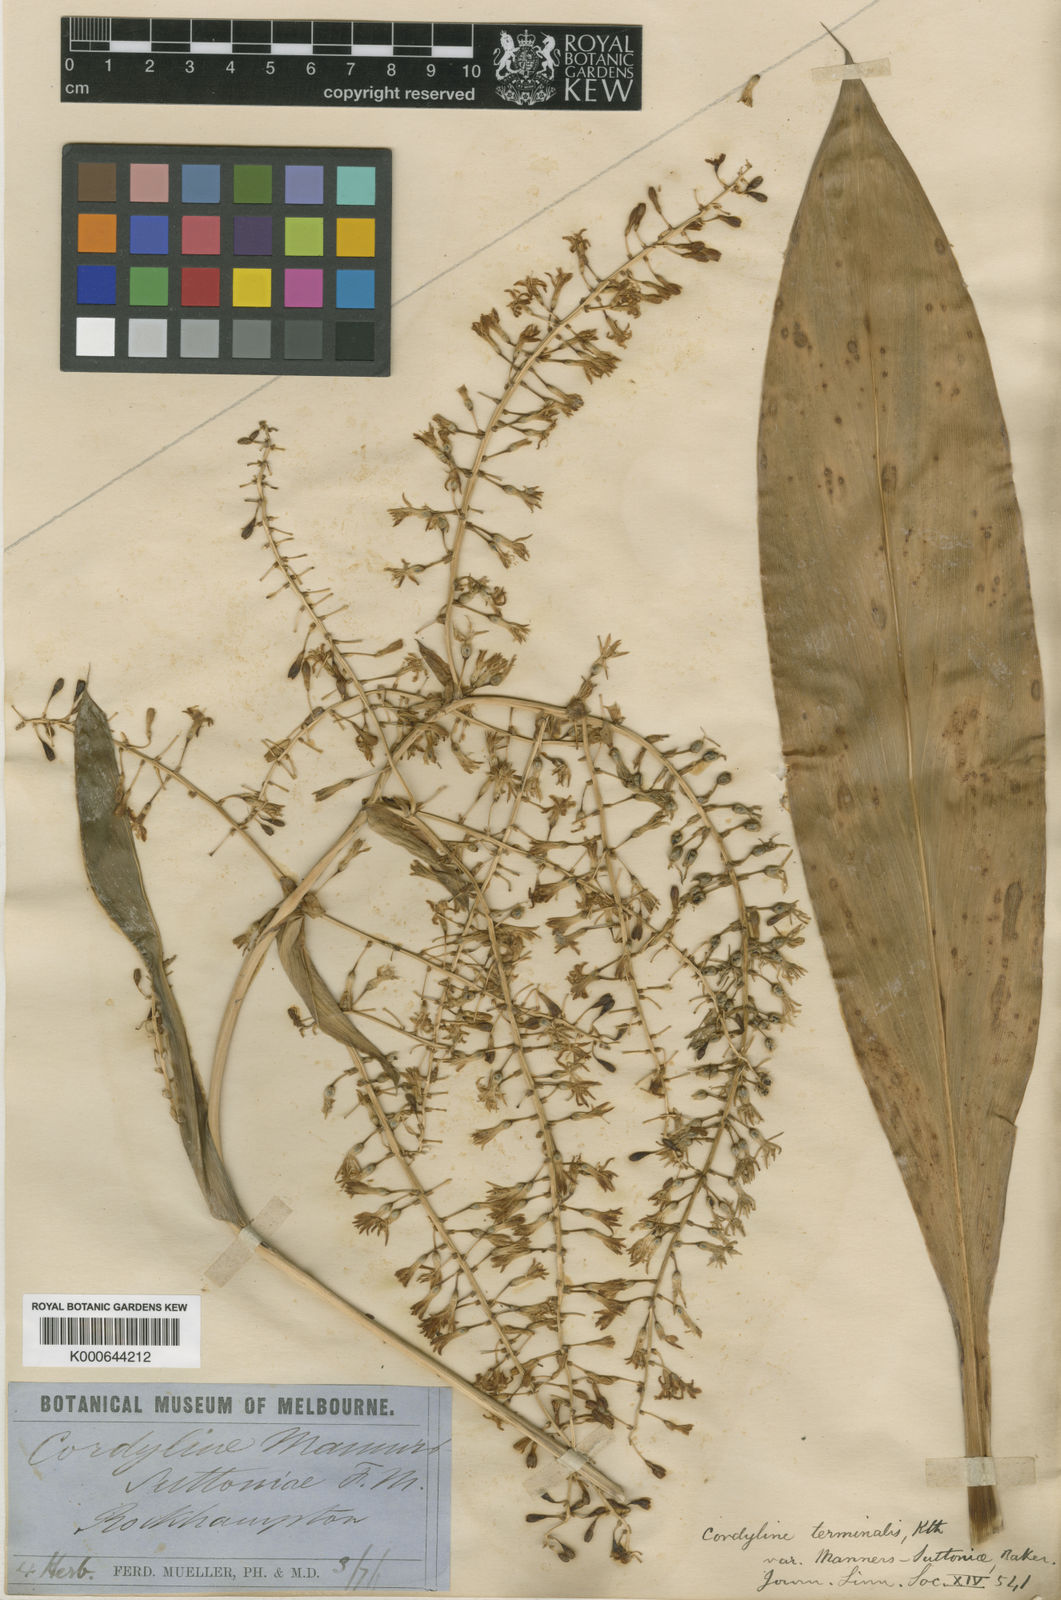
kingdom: Plantae
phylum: Tracheophyta
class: Liliopsida
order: Asparagales
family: Asparagaceae
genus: Cordyline
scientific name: Cordyline fruticosa
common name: Good-luck-plant
